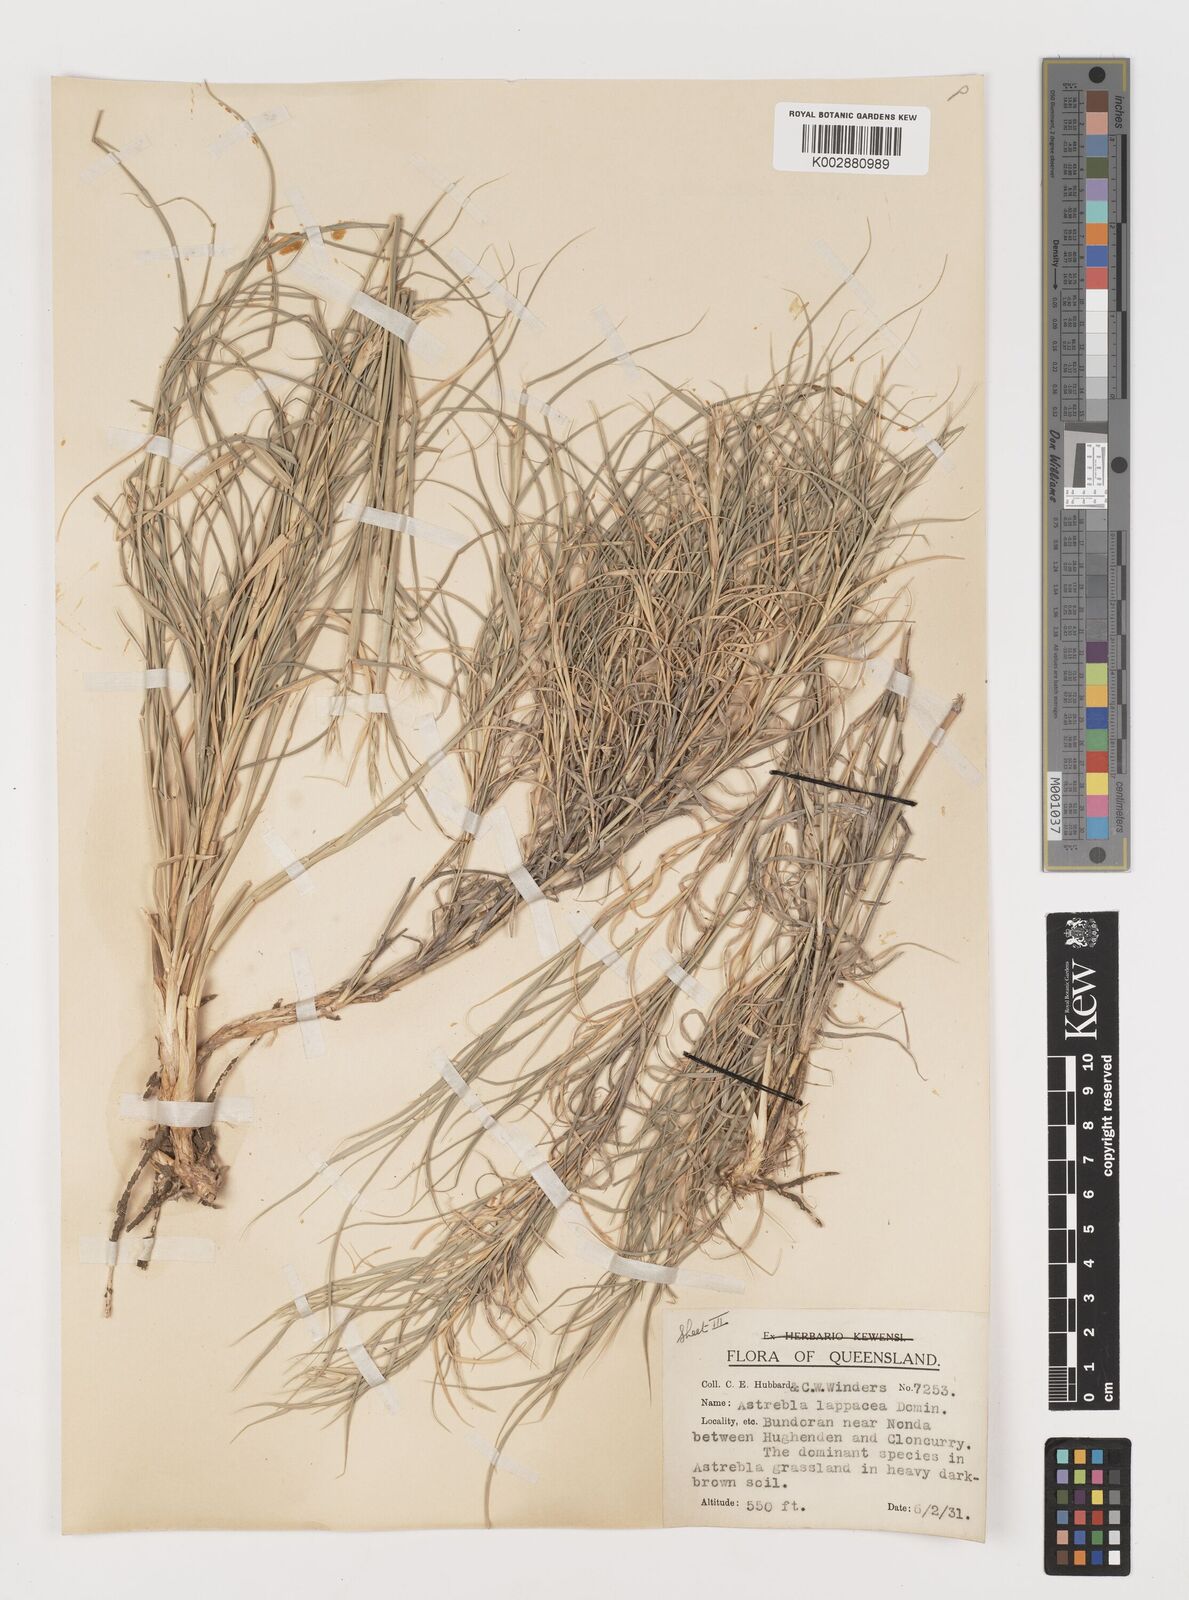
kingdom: Plantae
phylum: Tracheophyta
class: Liliopsida
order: Poales
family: Poaceae
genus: Astrebla
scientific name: Astrebla lappacea
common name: Curly mitchell grass
